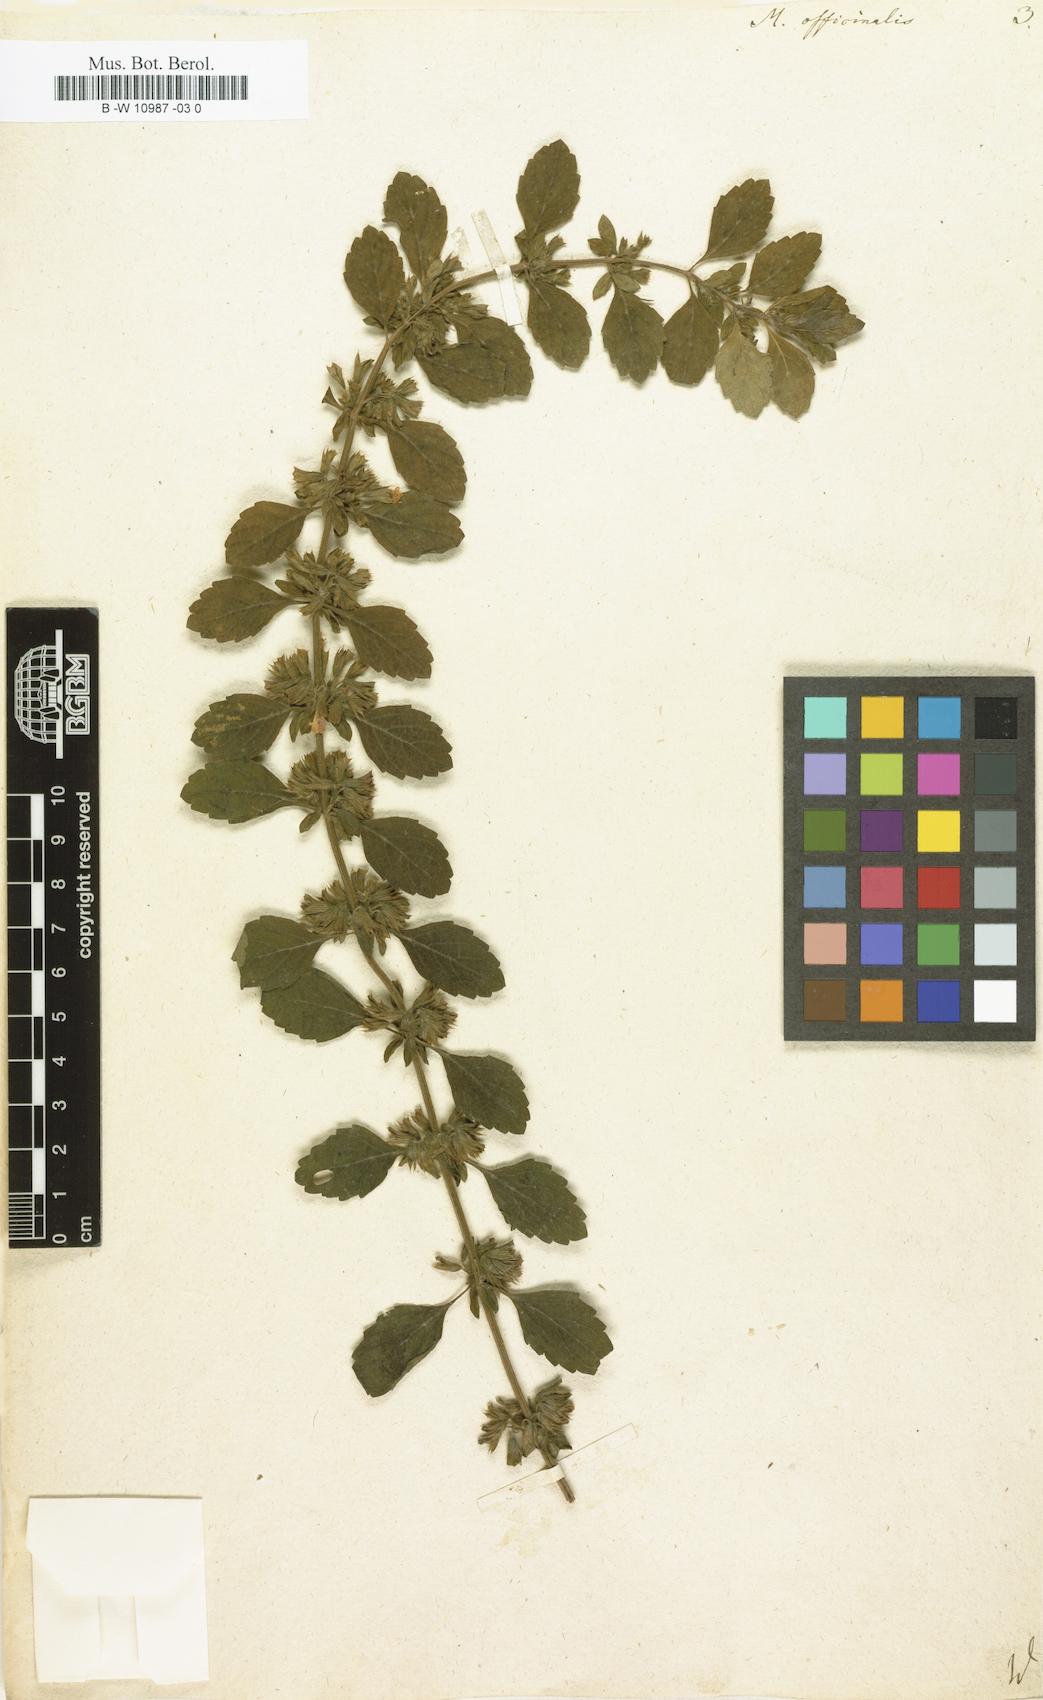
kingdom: Plantae
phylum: Tracheophyta
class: Magnoliopsida
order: Lamiales
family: Lamiaceae
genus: Melissa
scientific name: Melissa officinalis
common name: Balm
